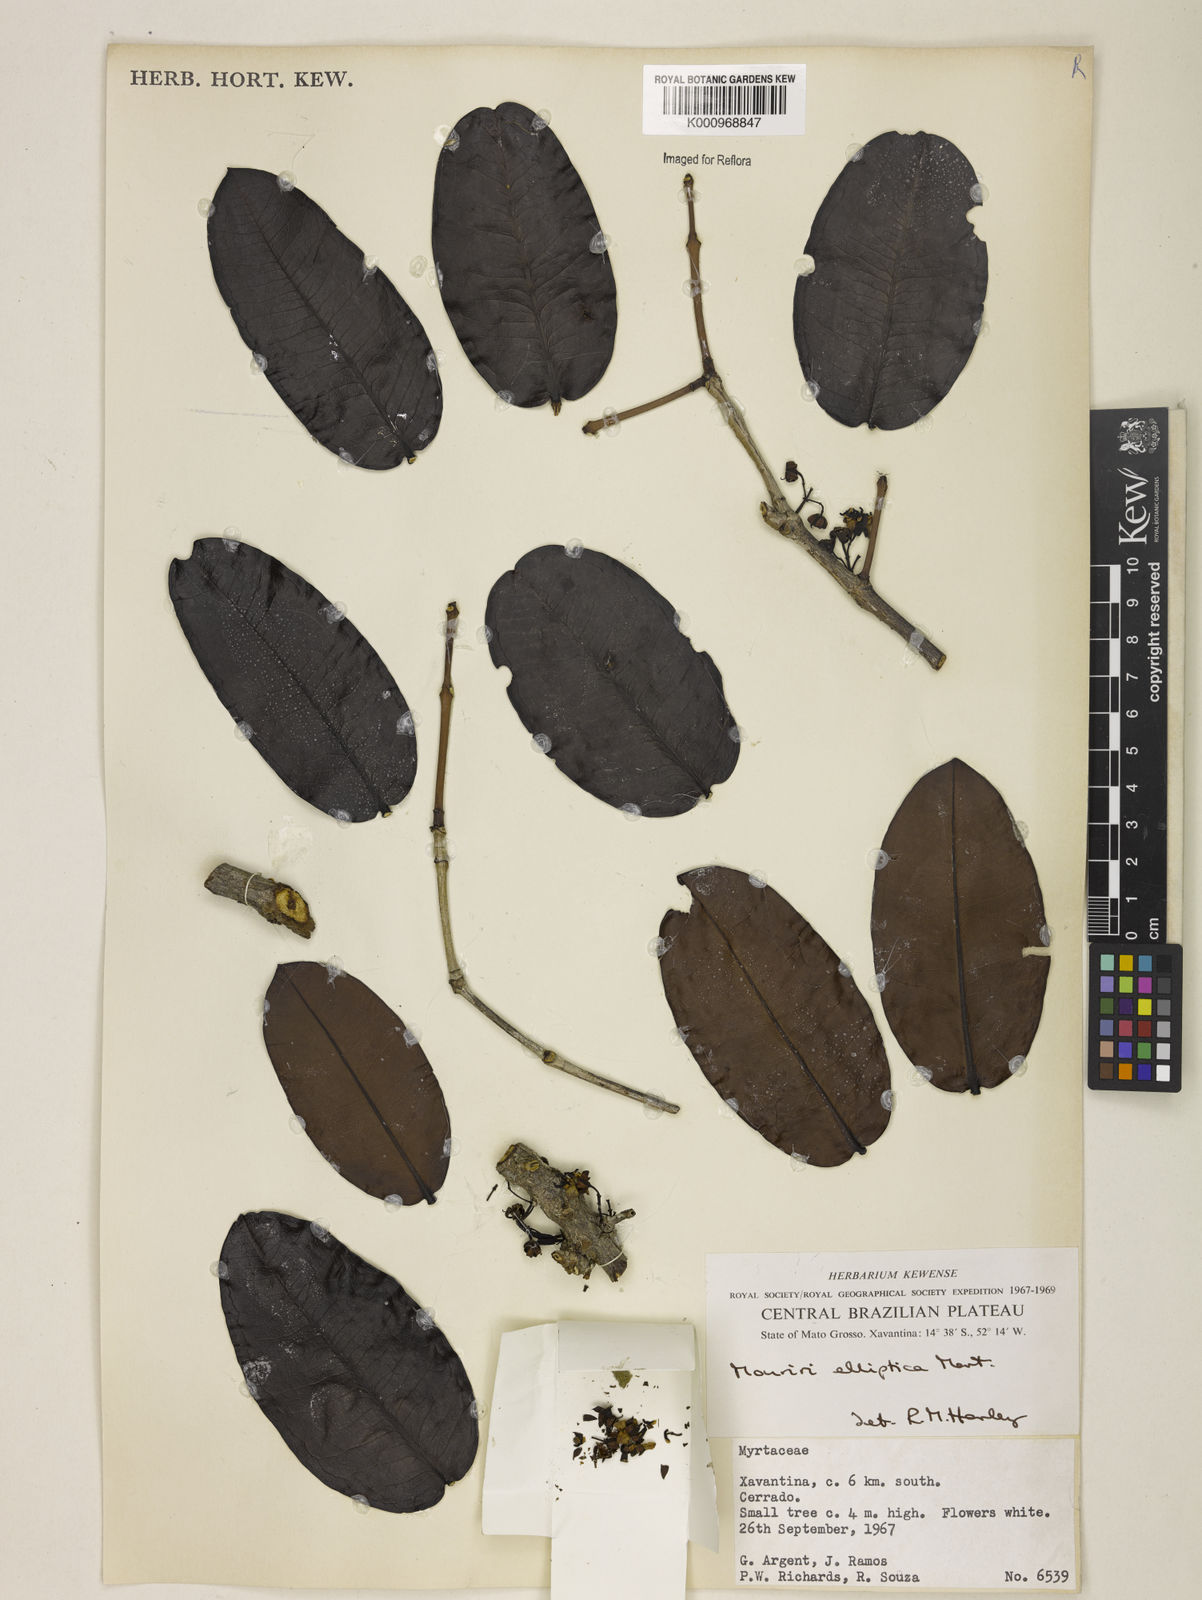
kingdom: Plantae
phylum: Tracheophyta
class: Magnoliopsida
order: Myrtales
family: Melastomataceae
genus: Mouriri
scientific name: Mouriri elliptica
